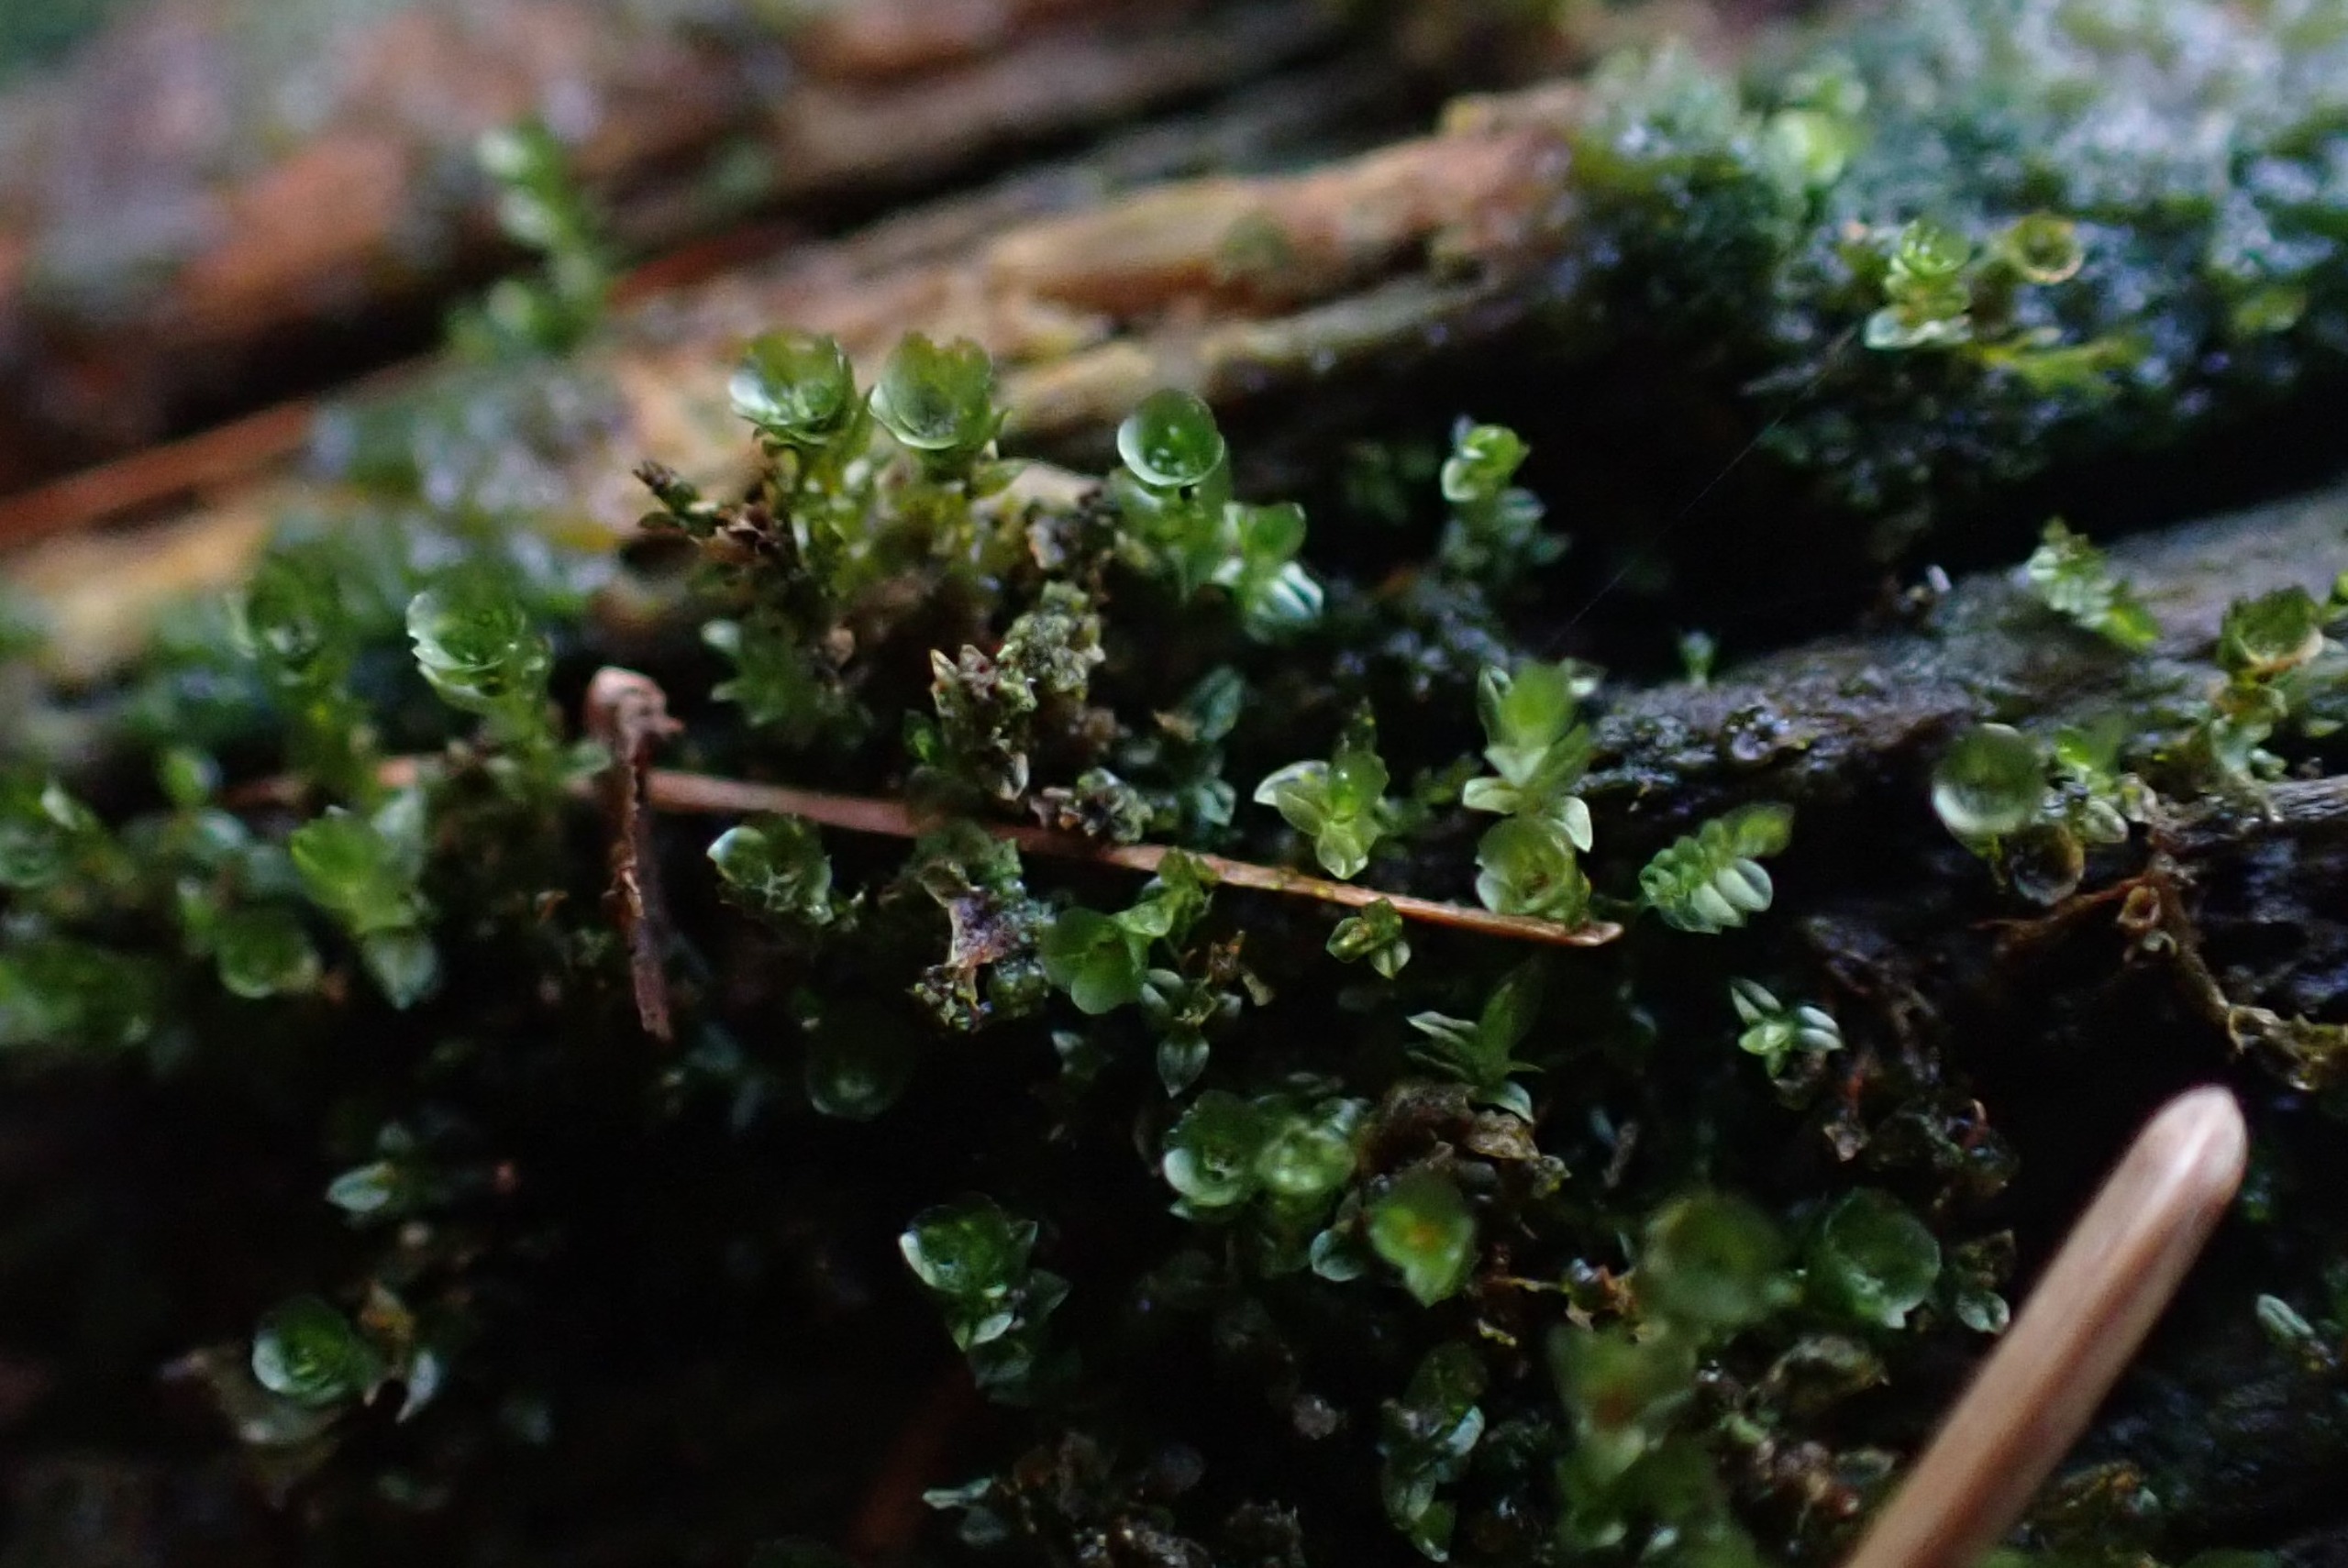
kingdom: Plantae
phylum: Bryophyta
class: Polytrichopsida
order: Tetraphidales
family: Tetraphidaceae
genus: Tetraphis
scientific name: Tetraphis pellucida
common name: Almindelig firtand
